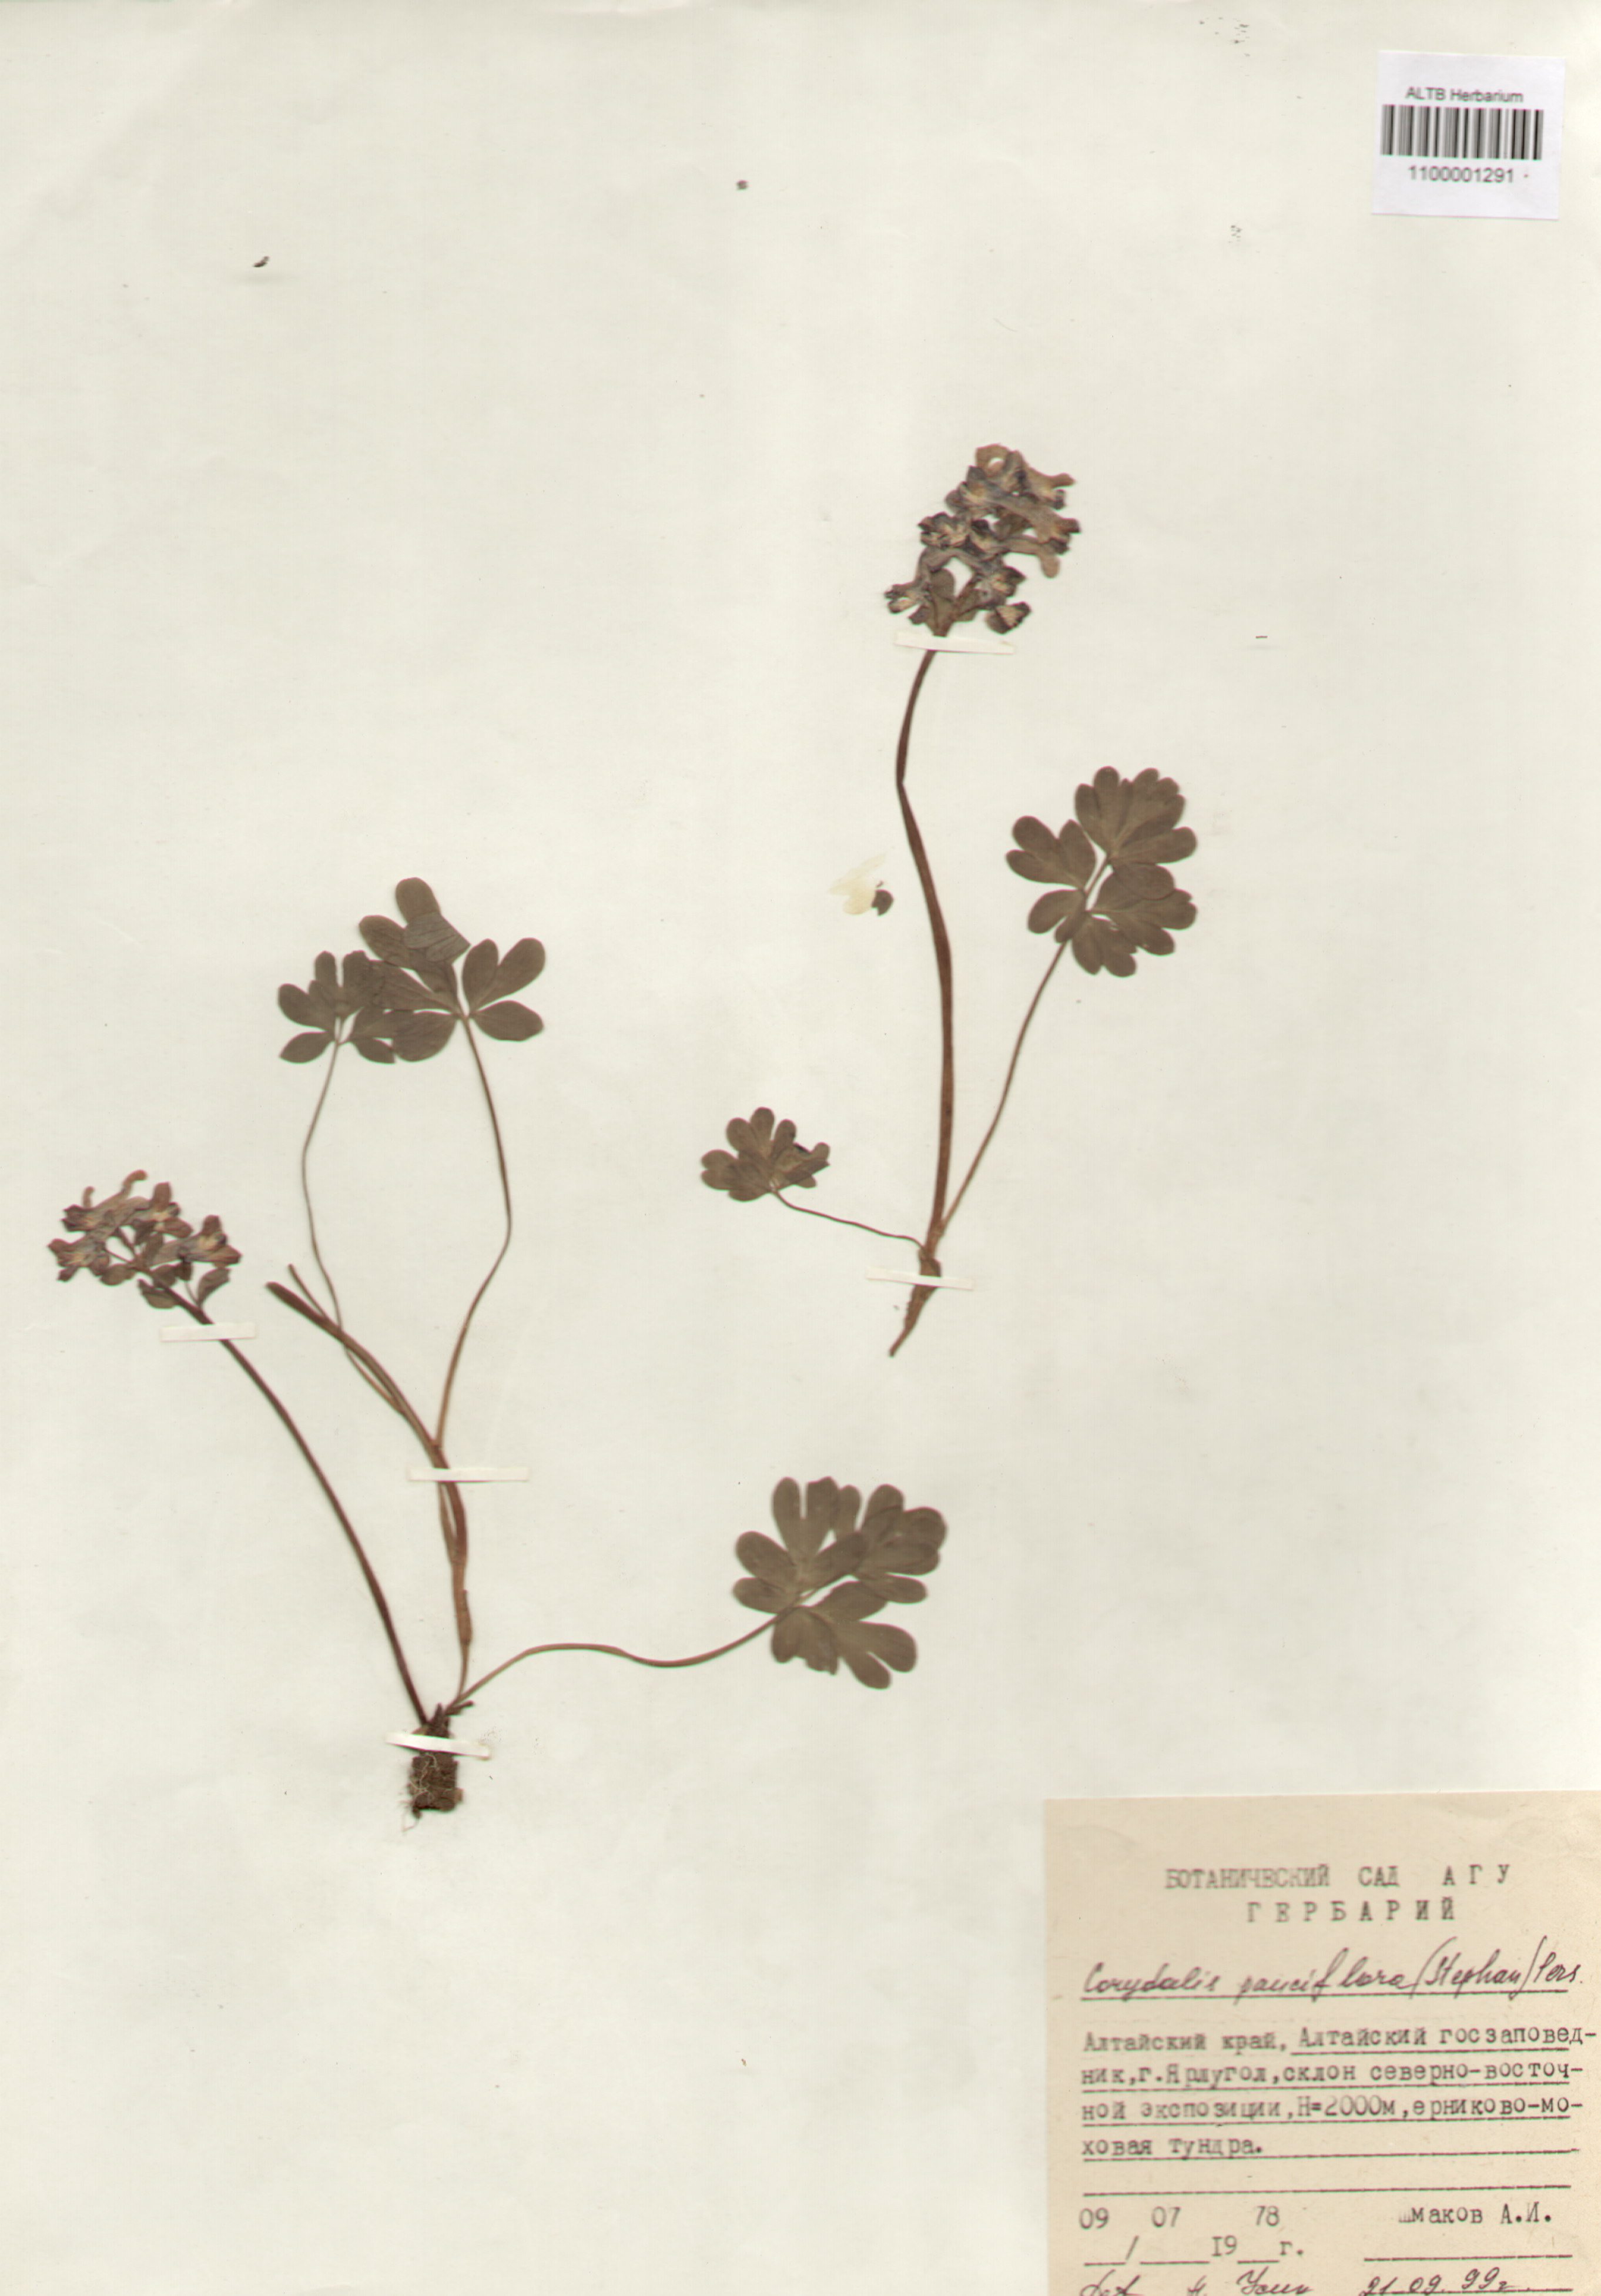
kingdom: Plantae
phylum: Tracheophyta
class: Magnoliopsida
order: Ranunculales
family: Papaveraceae
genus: Corydalis
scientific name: Corydalis pauciflora
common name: Blue corydalis
